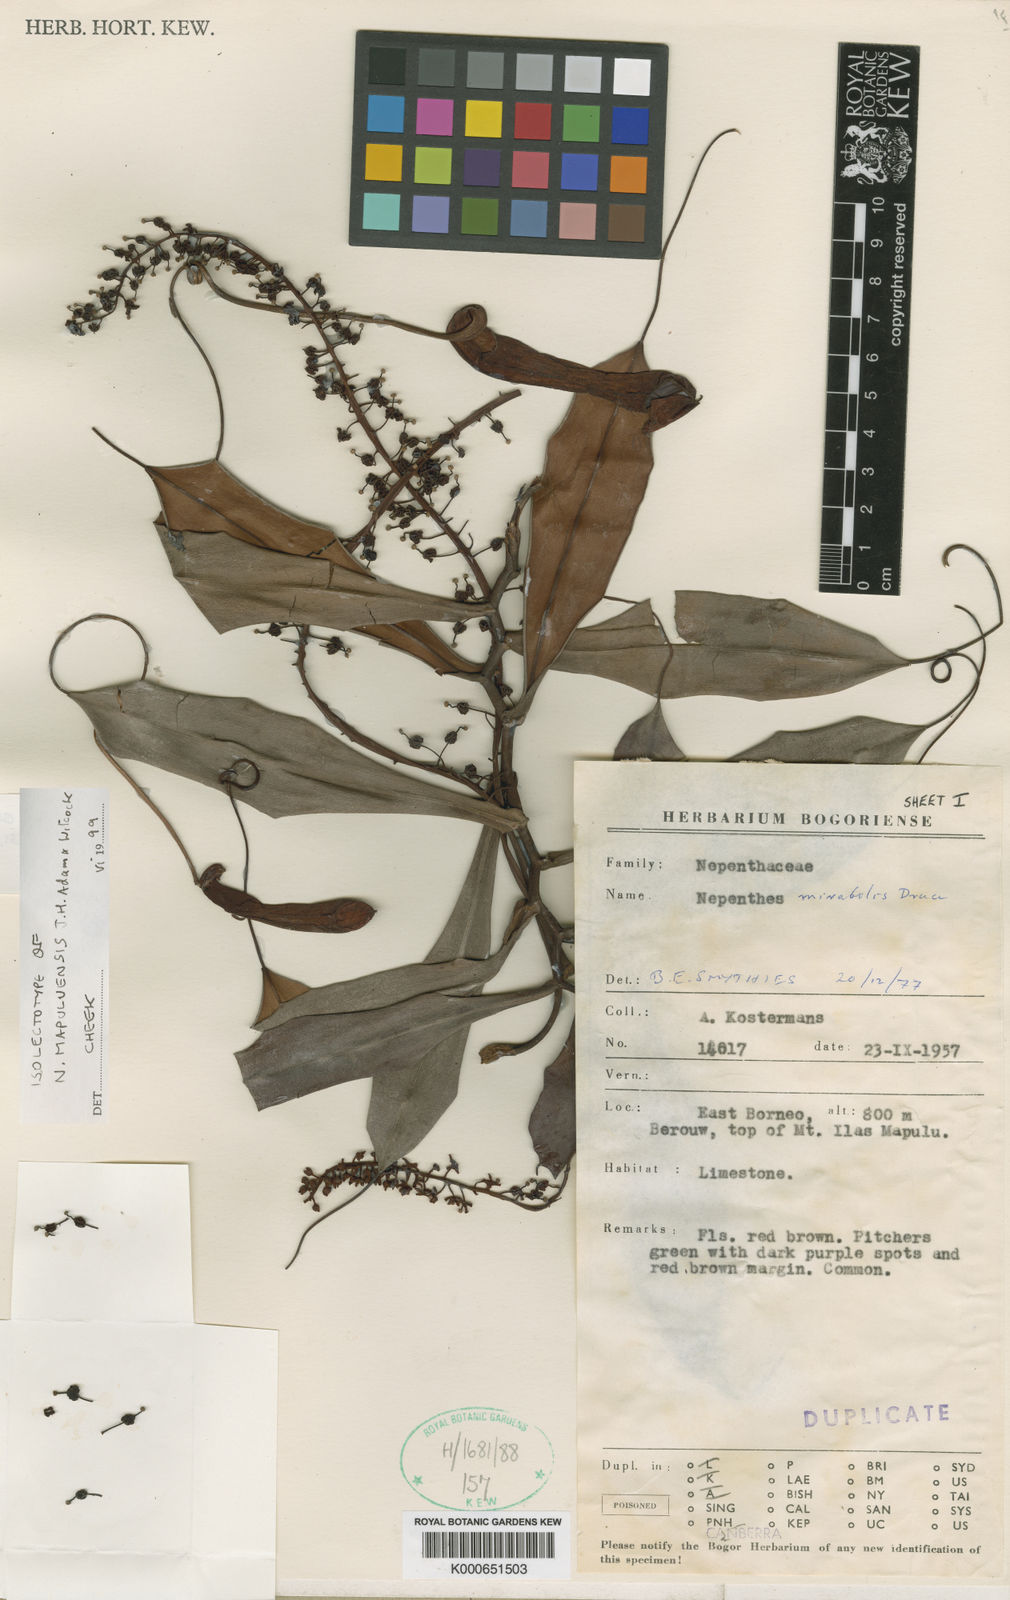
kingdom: Plantae
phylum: Tracheophyta
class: Magnoliopsida
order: Caryophyllales
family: Nepenthaceae
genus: Nepenthes
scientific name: Nepenthes mapuluensis
